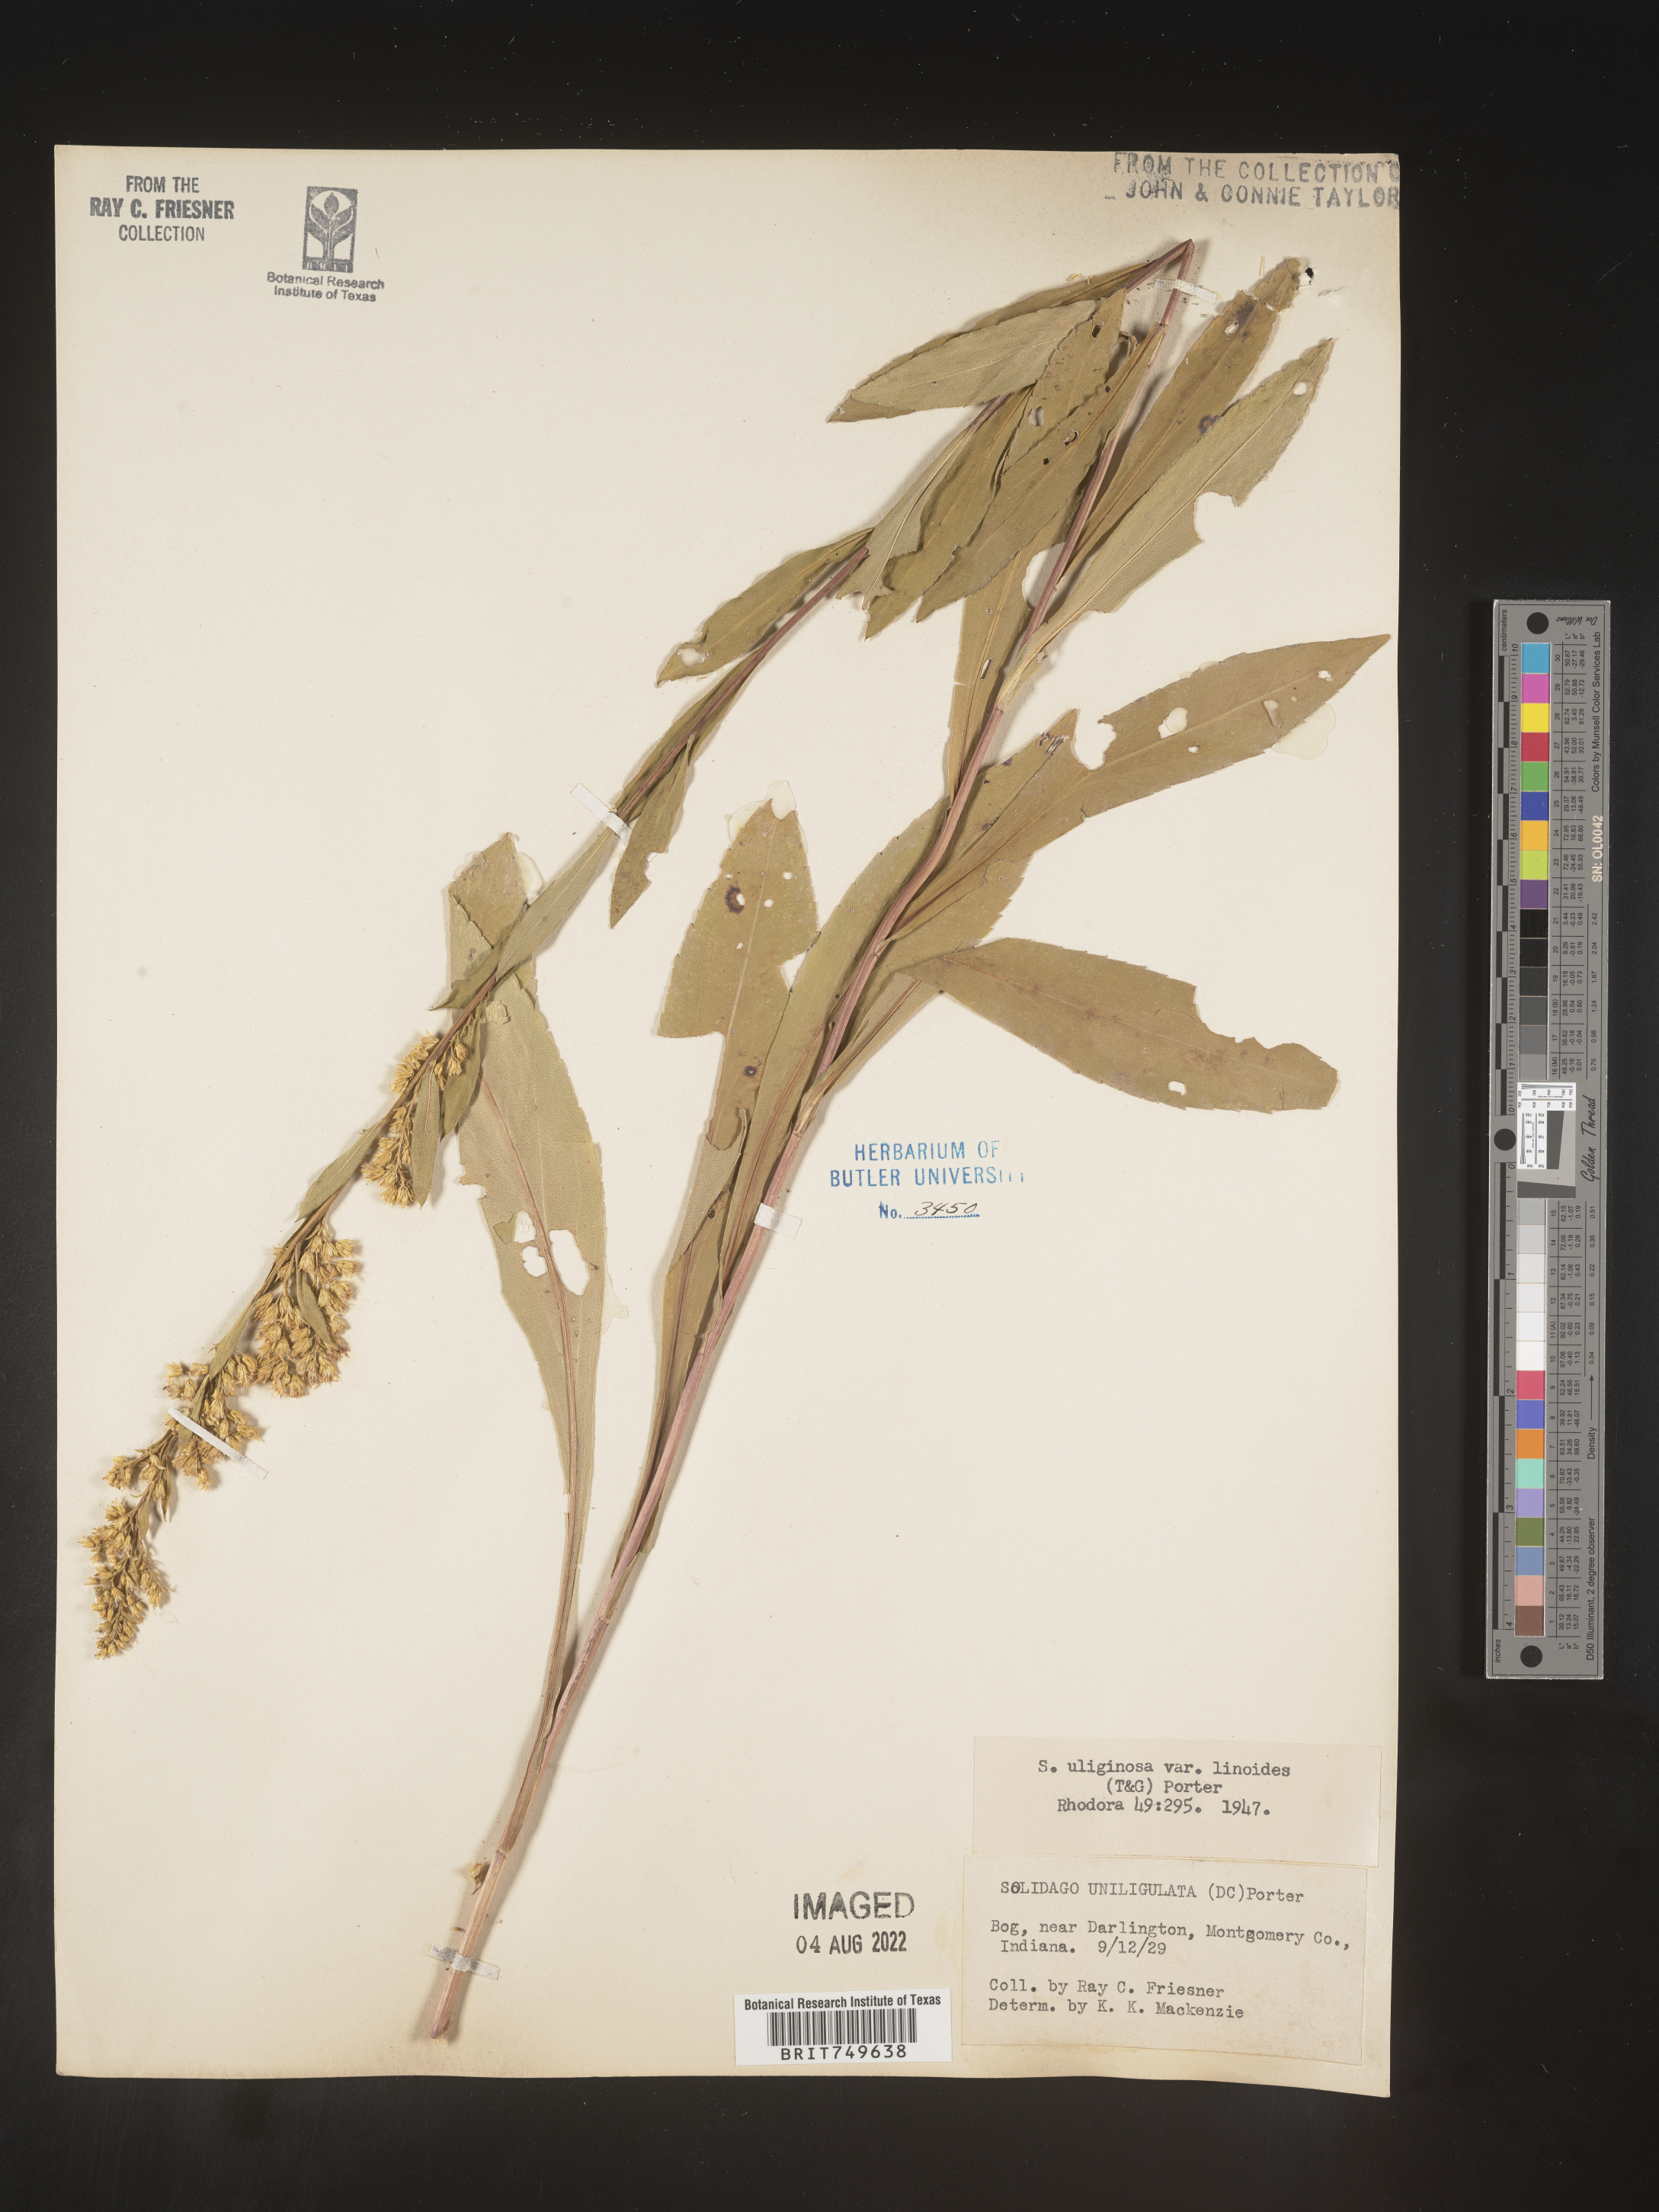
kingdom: Plantae
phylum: Tracheophyta
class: Magnoliopsida
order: Asterales
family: Asteraceae
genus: Solidago
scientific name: Solidago uliginosa
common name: Bog goldenrod
